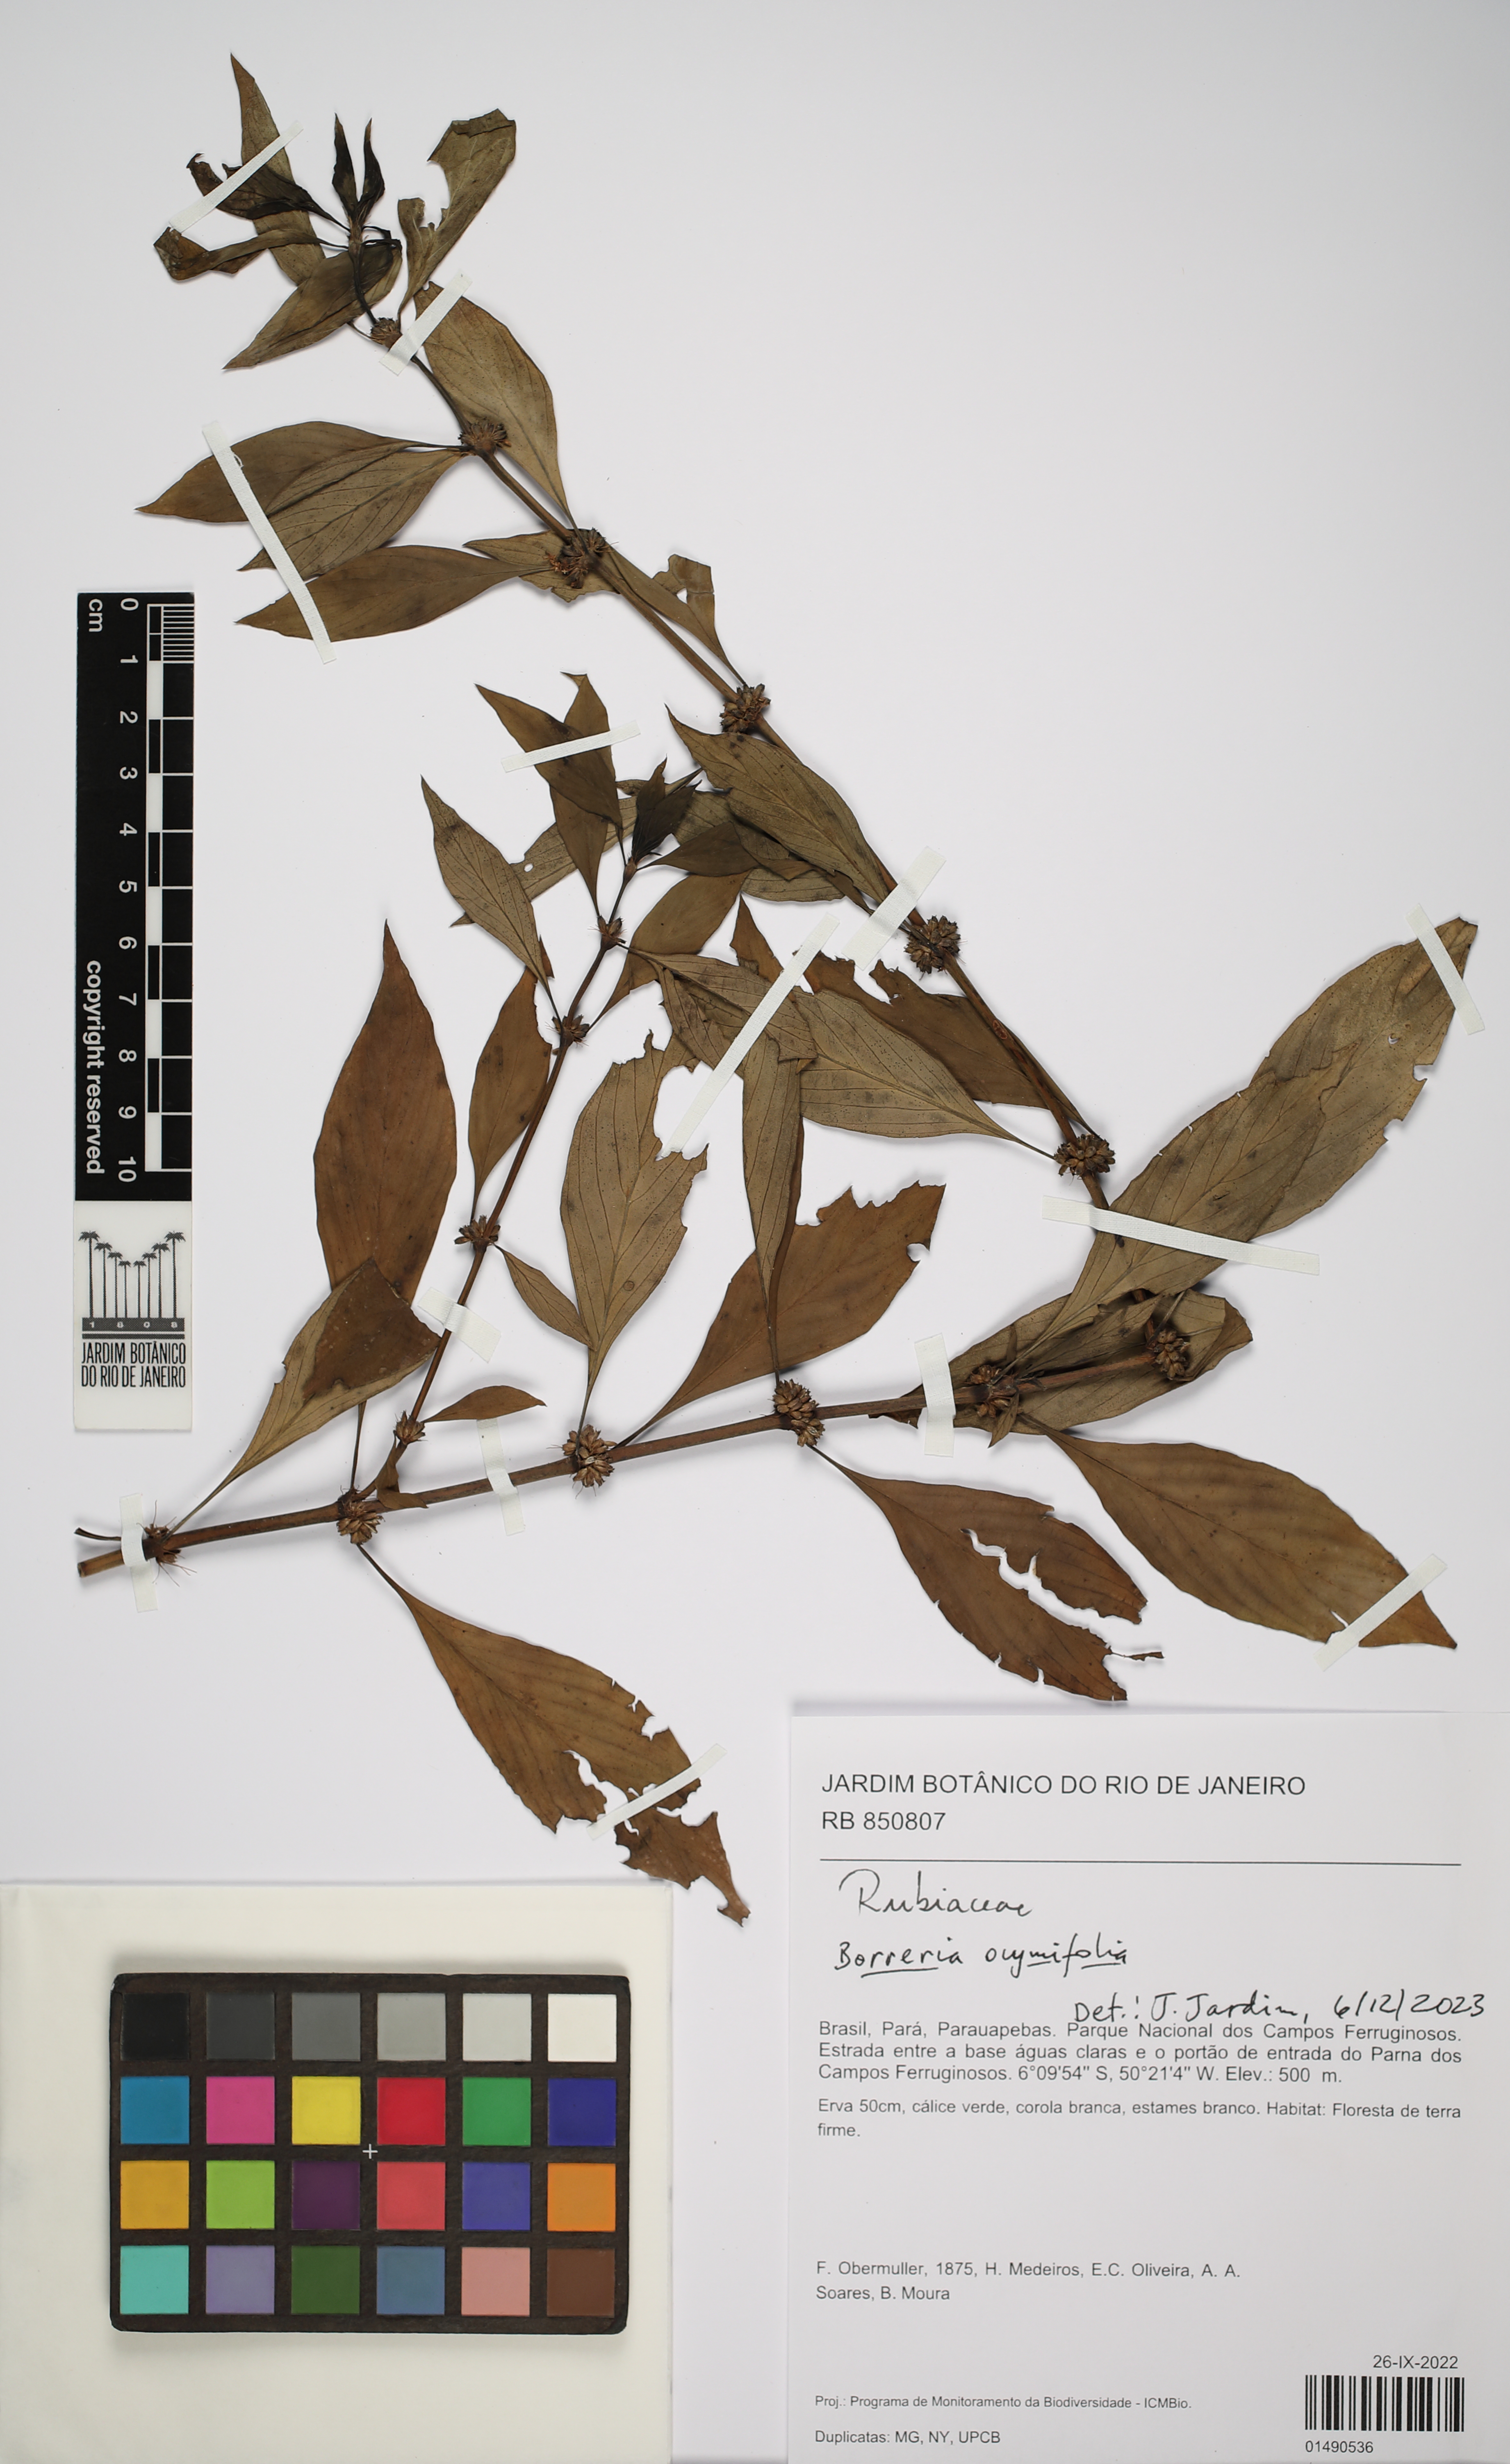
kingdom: Plantae
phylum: Tracheophyta
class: Magnoliopsida
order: Gentianales
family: Rubiaceae
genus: Spermacoce
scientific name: Spermacoce ocymifolia
